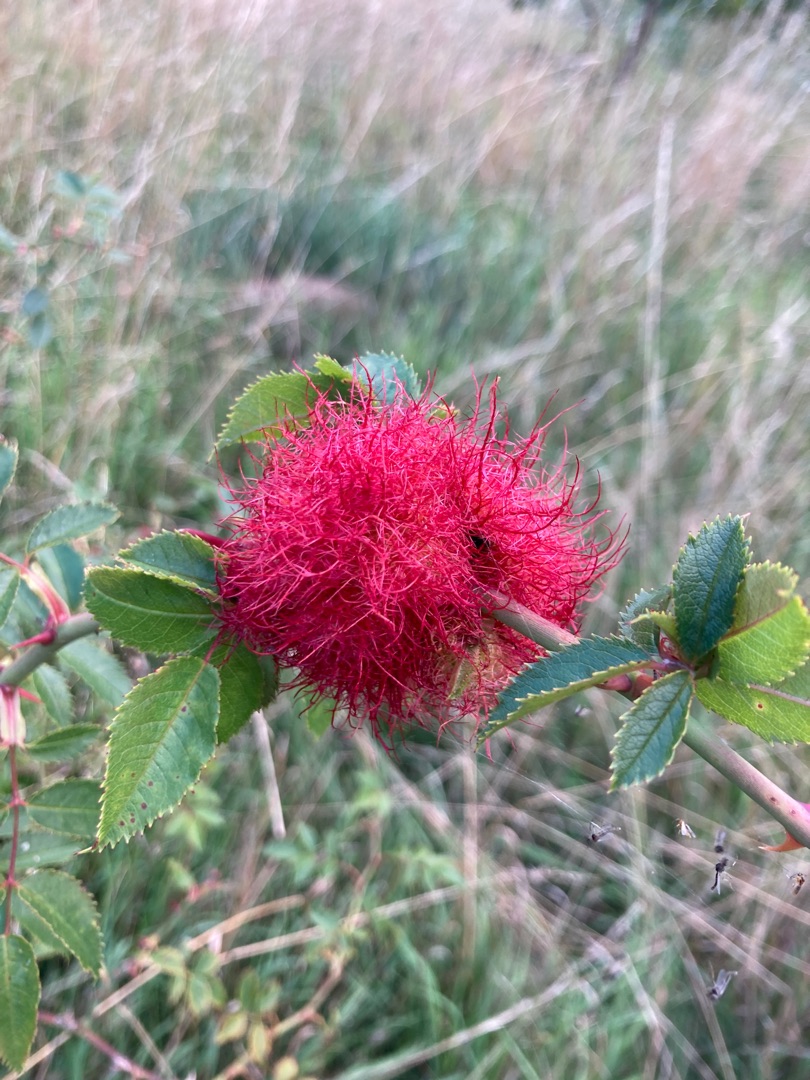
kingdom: Animalia
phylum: Arthropoda
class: Insecta
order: Hymenoptera
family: Cynipidae
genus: Diplolepis
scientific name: Diplolepis rosae
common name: Bedeguargalhveps
